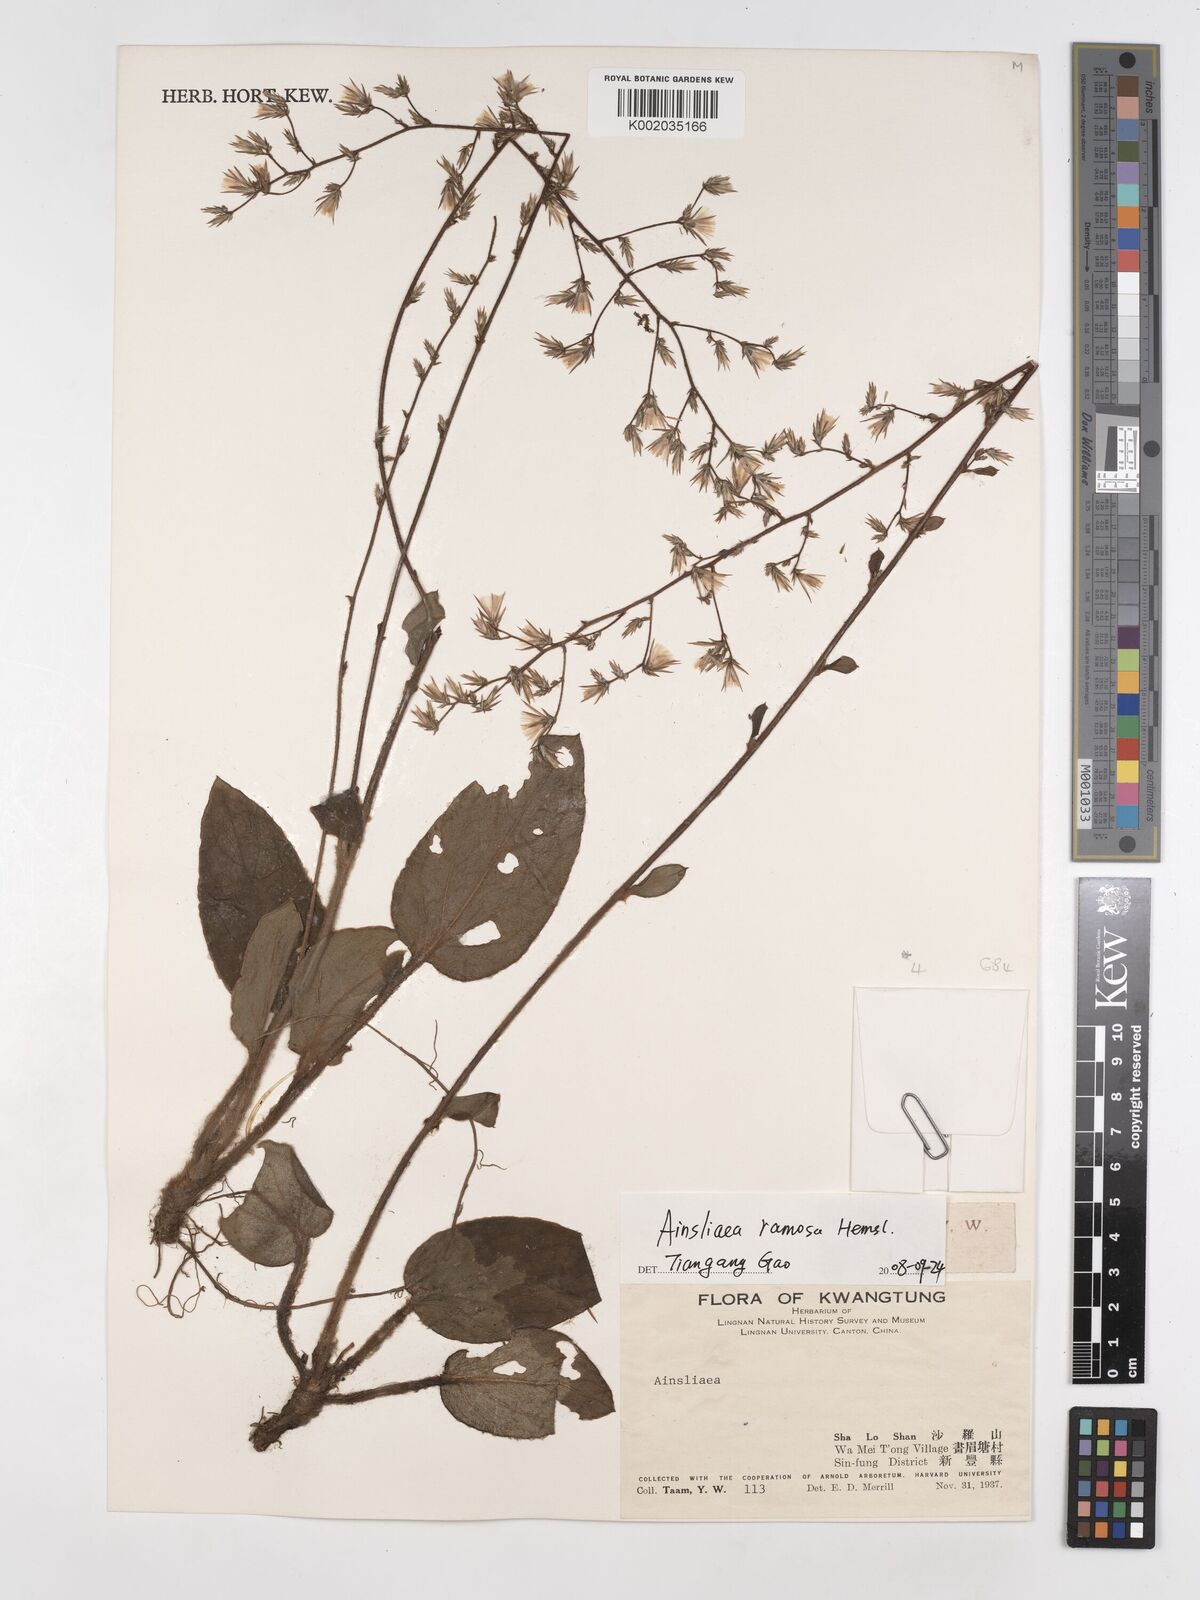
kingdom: Plantae
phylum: Tracheophyta
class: Magnoliopsida
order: Asterales
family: Asteraceae
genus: Ainsliaea
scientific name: Ainsliaea ramosa
